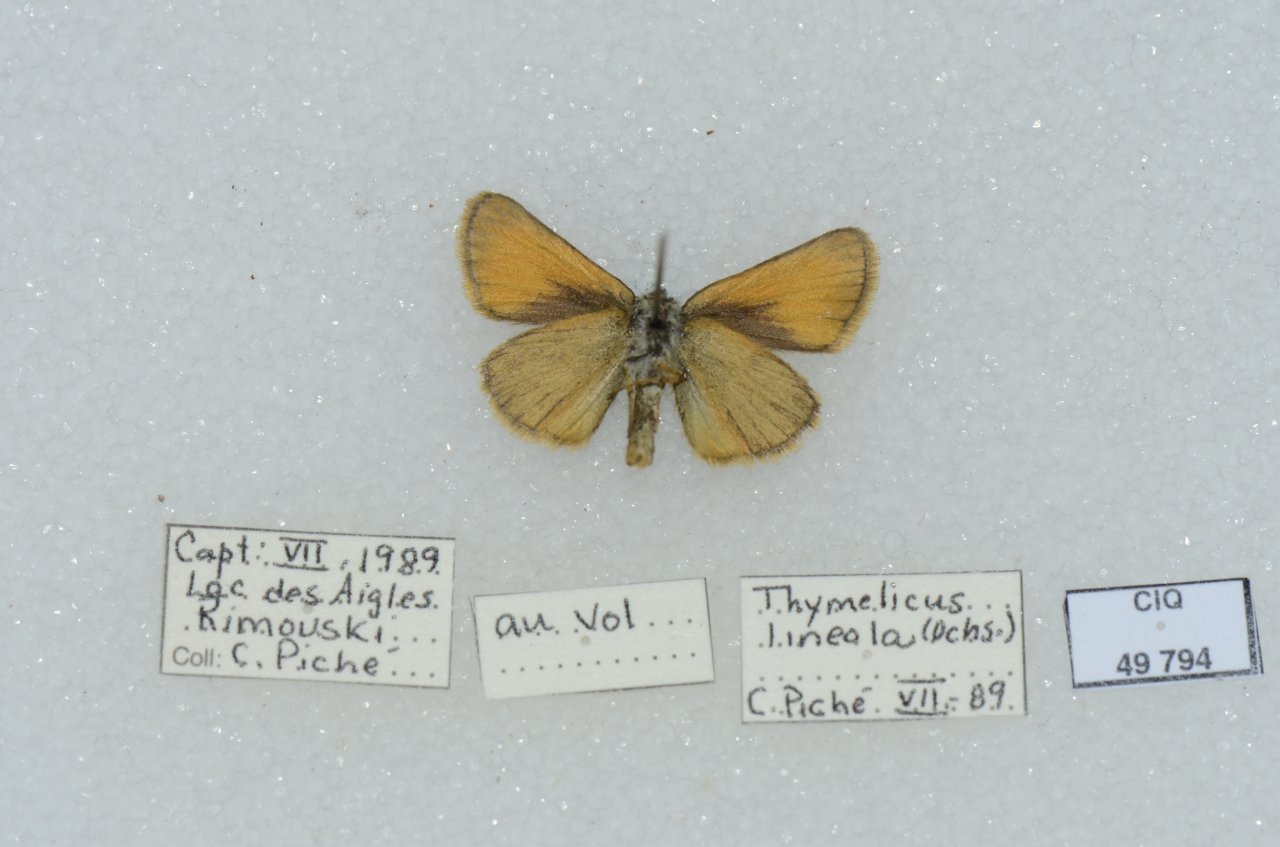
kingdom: Animalia
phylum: Arthropoda
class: Insecta
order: Lepidoptera
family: Hesperiidae
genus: Thymelicus
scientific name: Thymelicus lineola
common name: European Skipper
